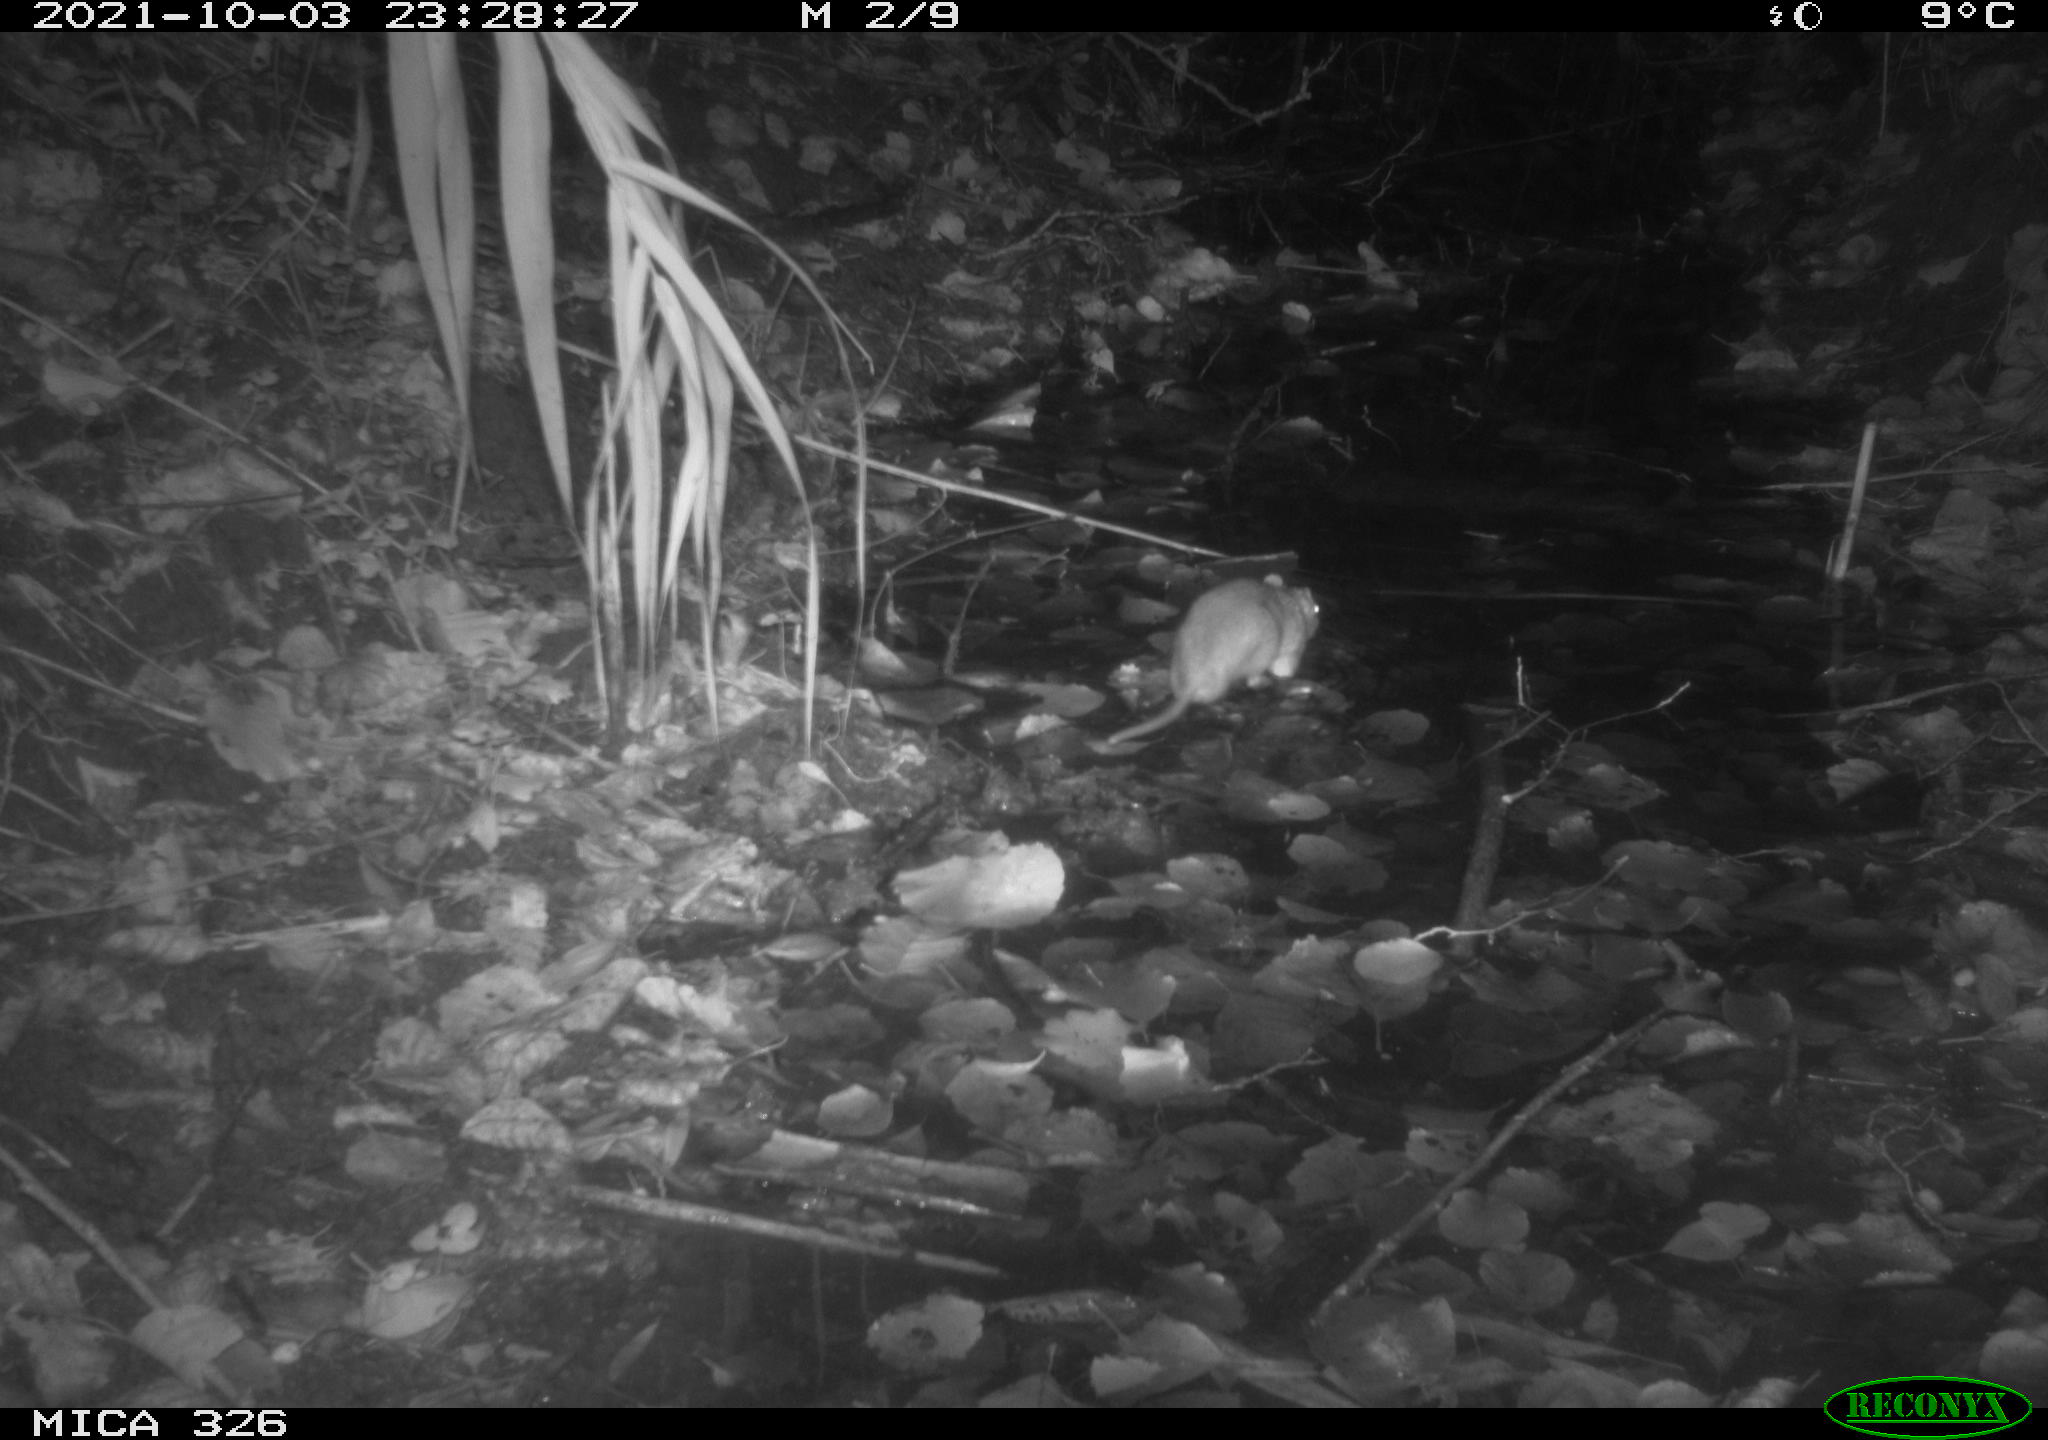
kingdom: Animalia
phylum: Chordata
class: Mammalia
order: Rodentia
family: Muridae
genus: Rattus
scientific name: Rattus norvegicus
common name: Brown rat
